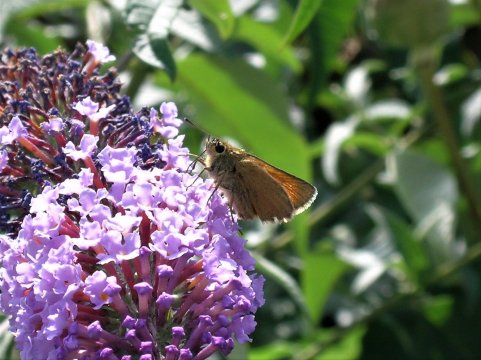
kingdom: Animalia
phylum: Arthropoda
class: Insecta
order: Lepidoptera
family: Hesperiidae
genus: Thymelicus
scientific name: Thymelicus sylvestris
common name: Small Skipper
